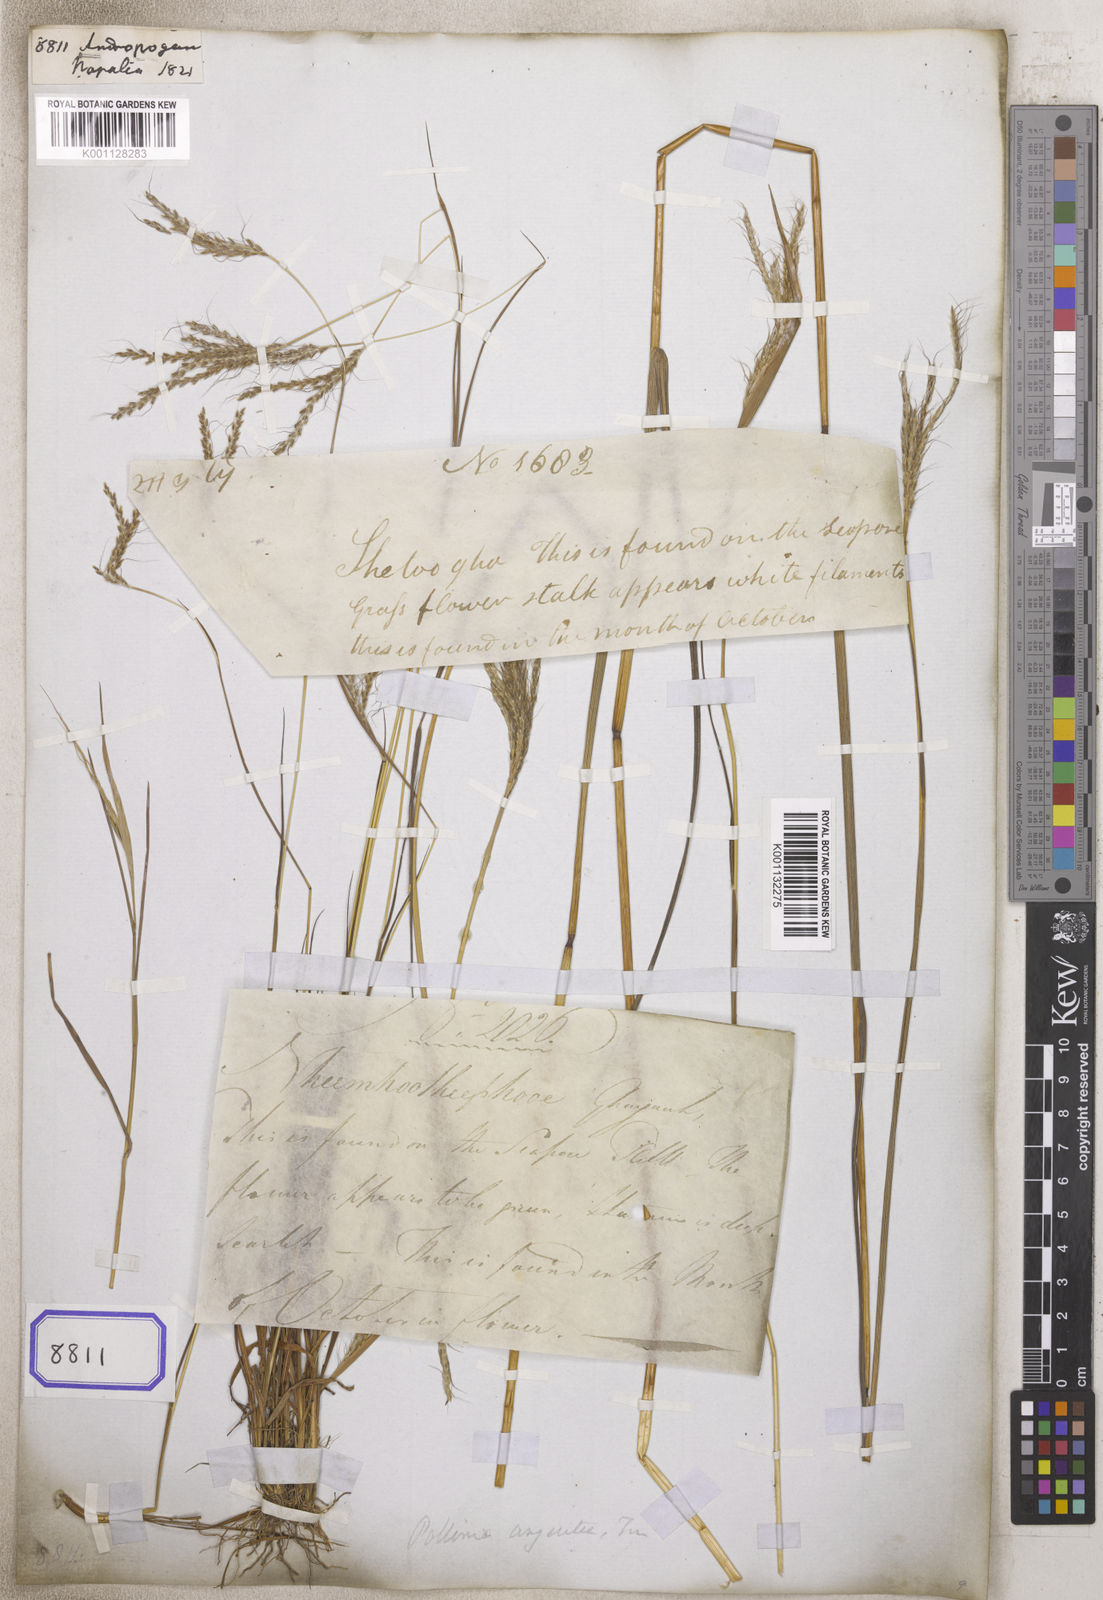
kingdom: Plantae
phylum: Tracheophyta
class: Liliopsida
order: Poales
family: Poaceae
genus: Andropogon
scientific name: Andropogon
